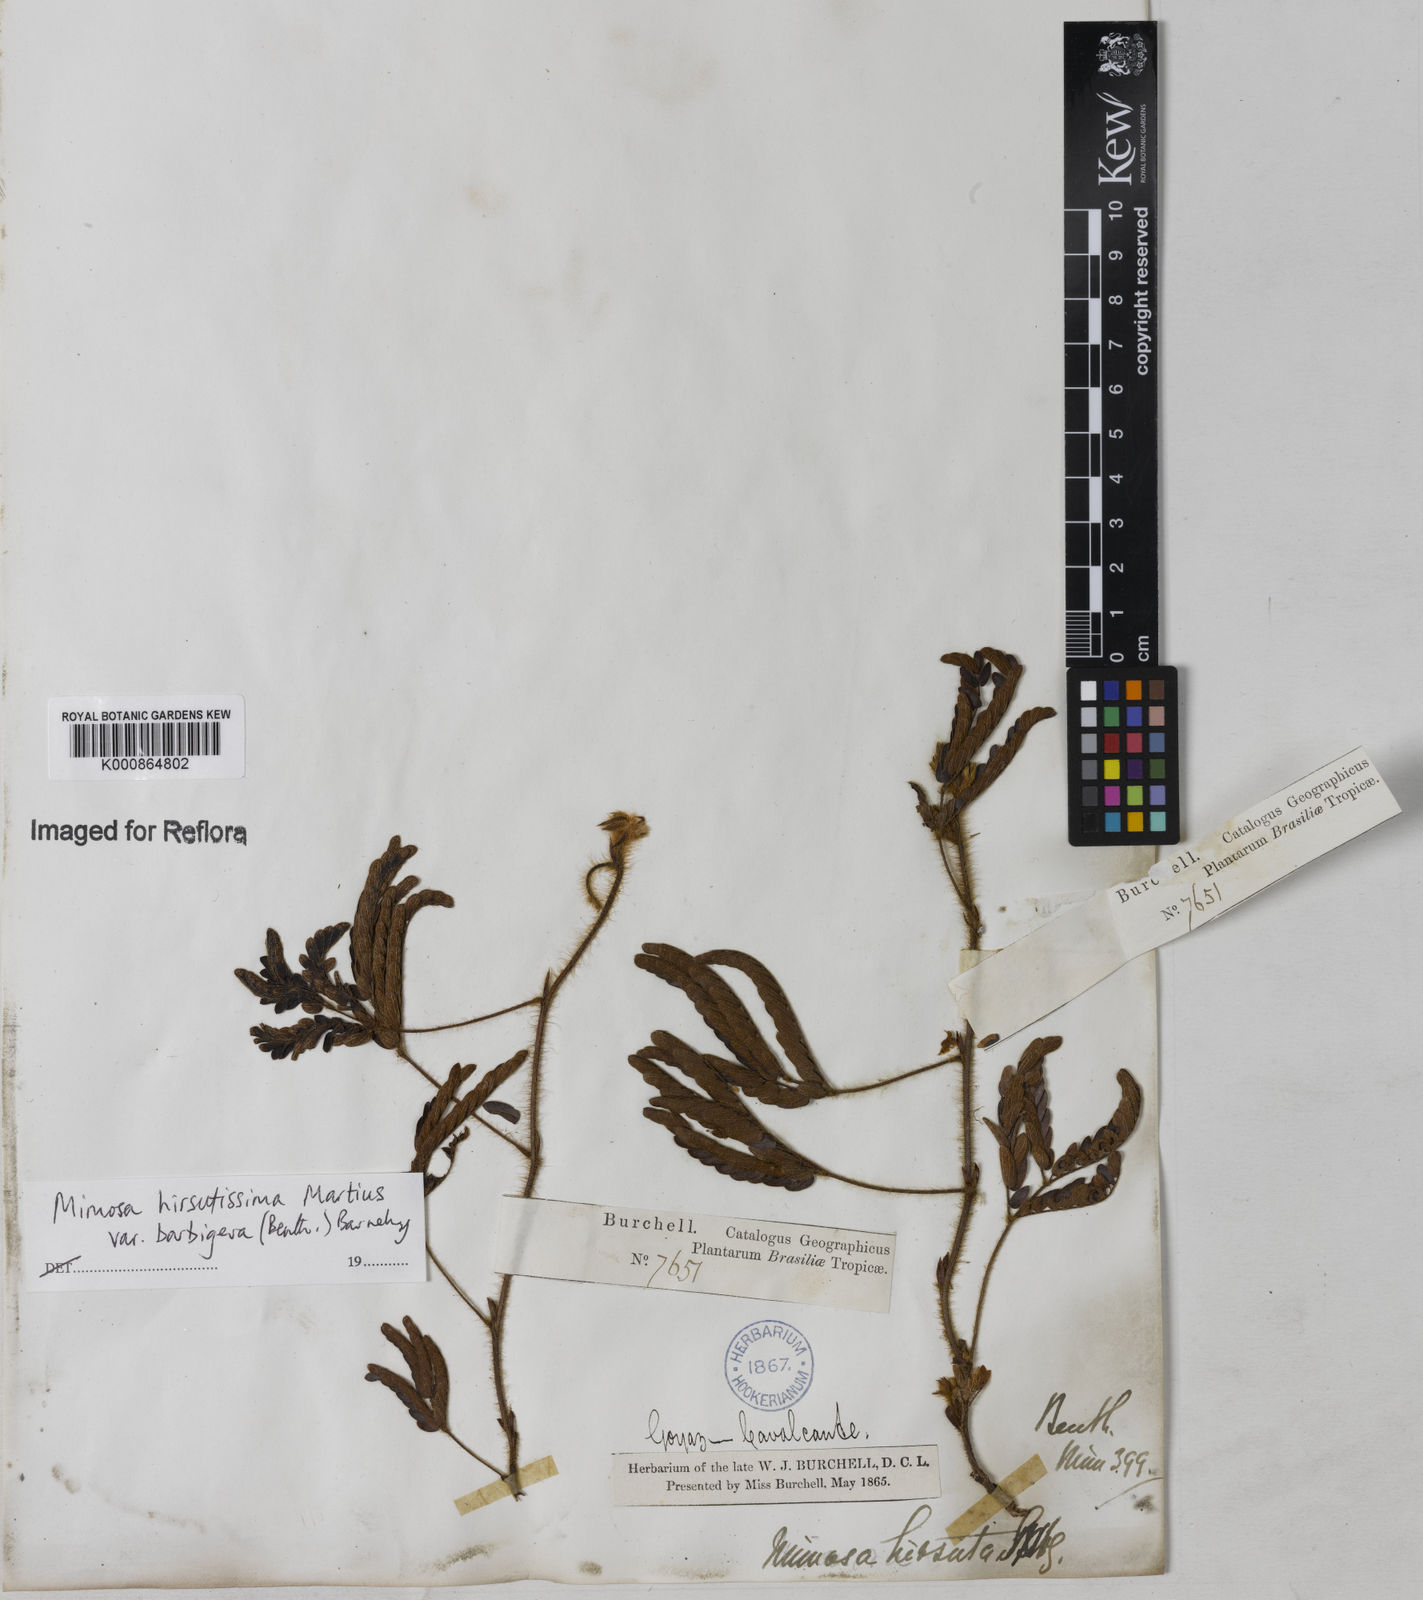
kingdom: Plantae
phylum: Tracheophyta
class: Magnoliopsida
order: Fabales
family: Fabaceae
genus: Mimosa
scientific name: Mimosa hirsutissima
